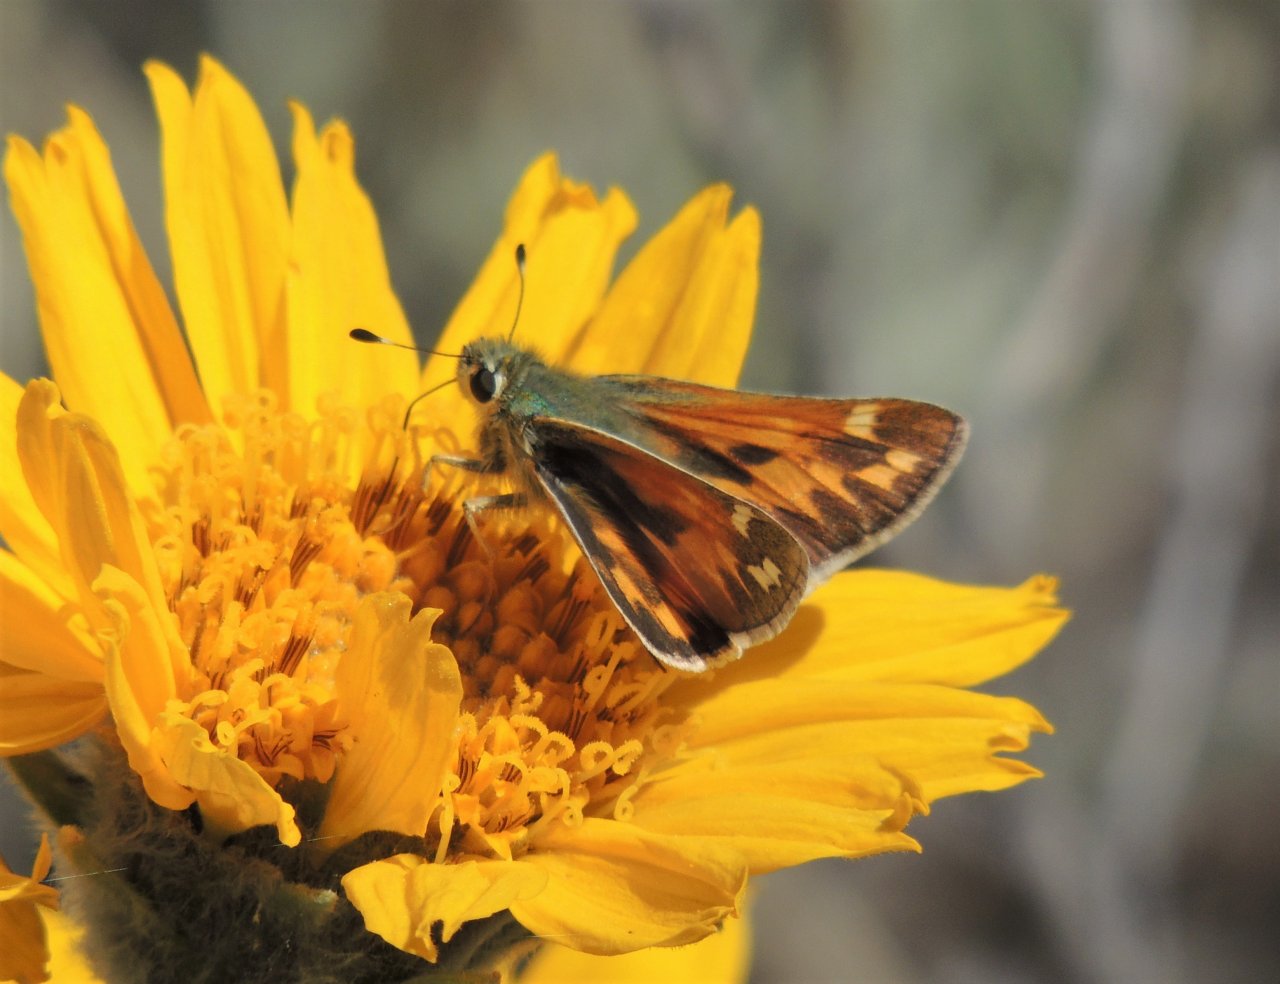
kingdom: Animalia
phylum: Arthropoda
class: Insecta
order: Lepidoptera
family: Hesperiidae
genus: Hesperia
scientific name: Hesperia juba
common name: Juba Skipper
